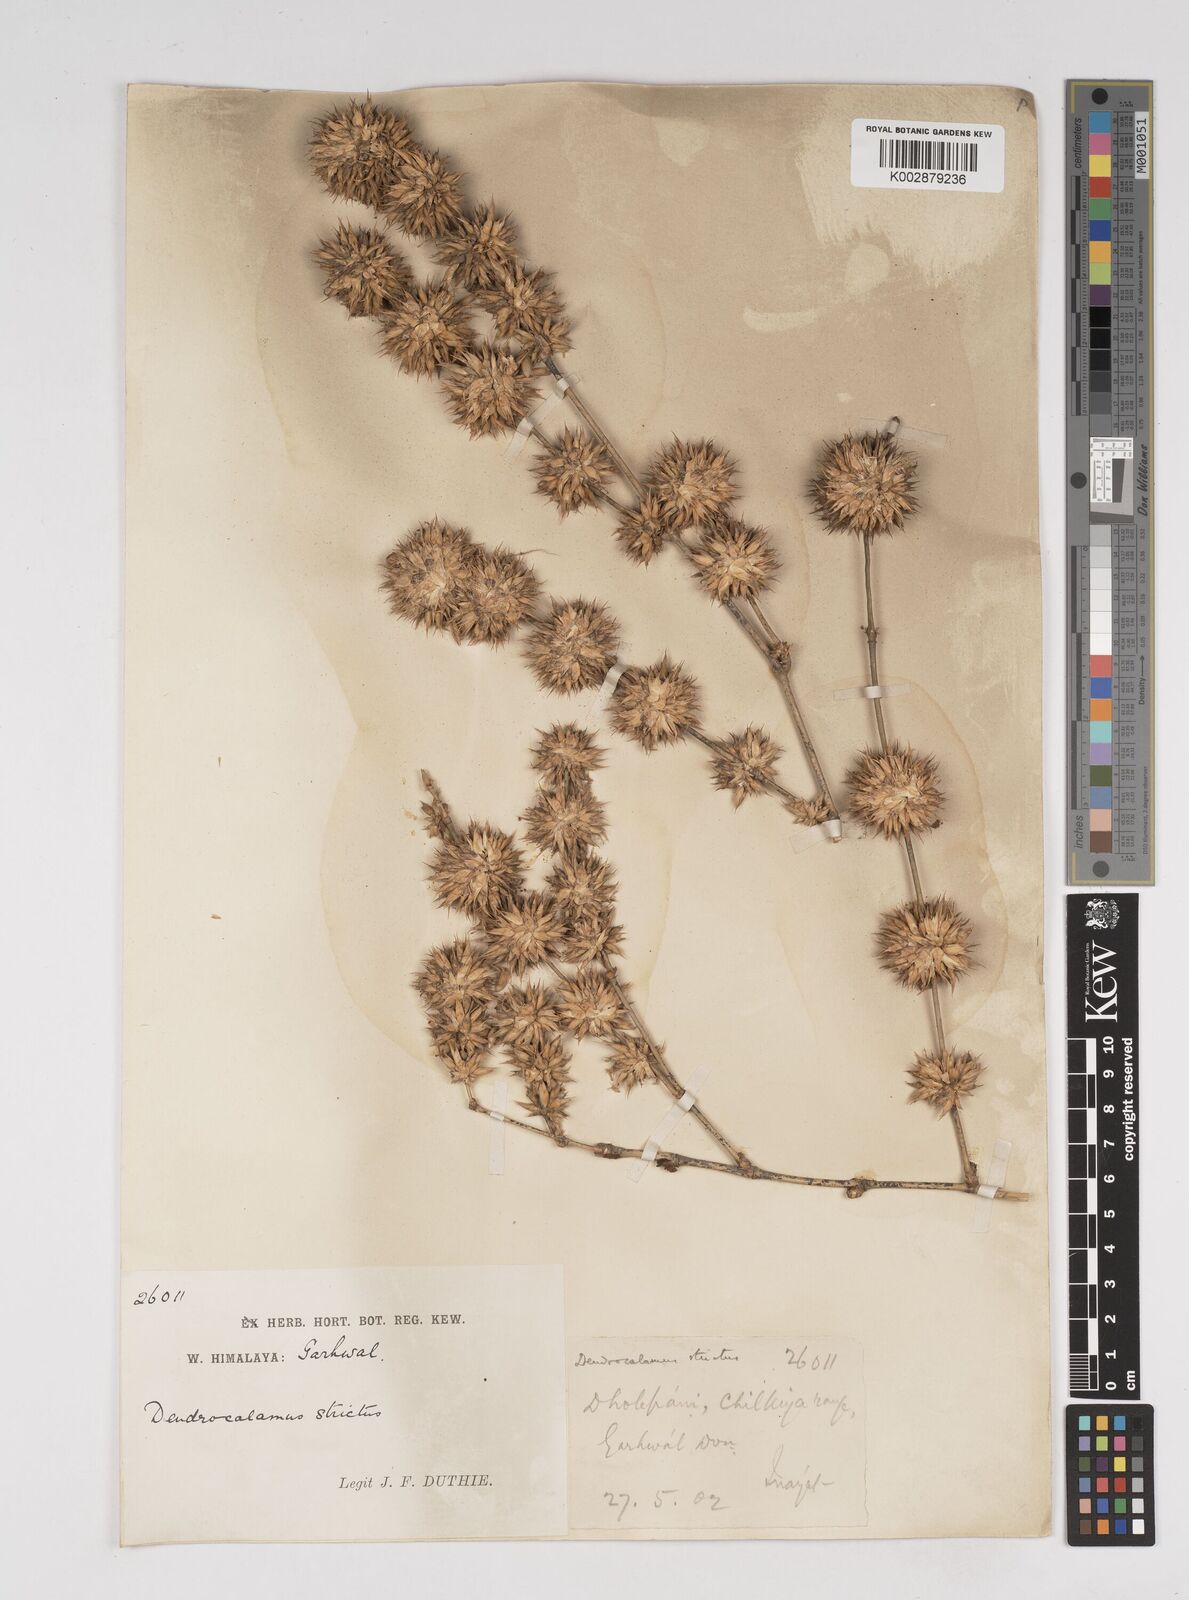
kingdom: Plantae
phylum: Tracheophyta
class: Liliopsida
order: Poales
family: Poaceae
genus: Dendrocalamus
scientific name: Dendrocalamus strictus
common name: Male bamboo
